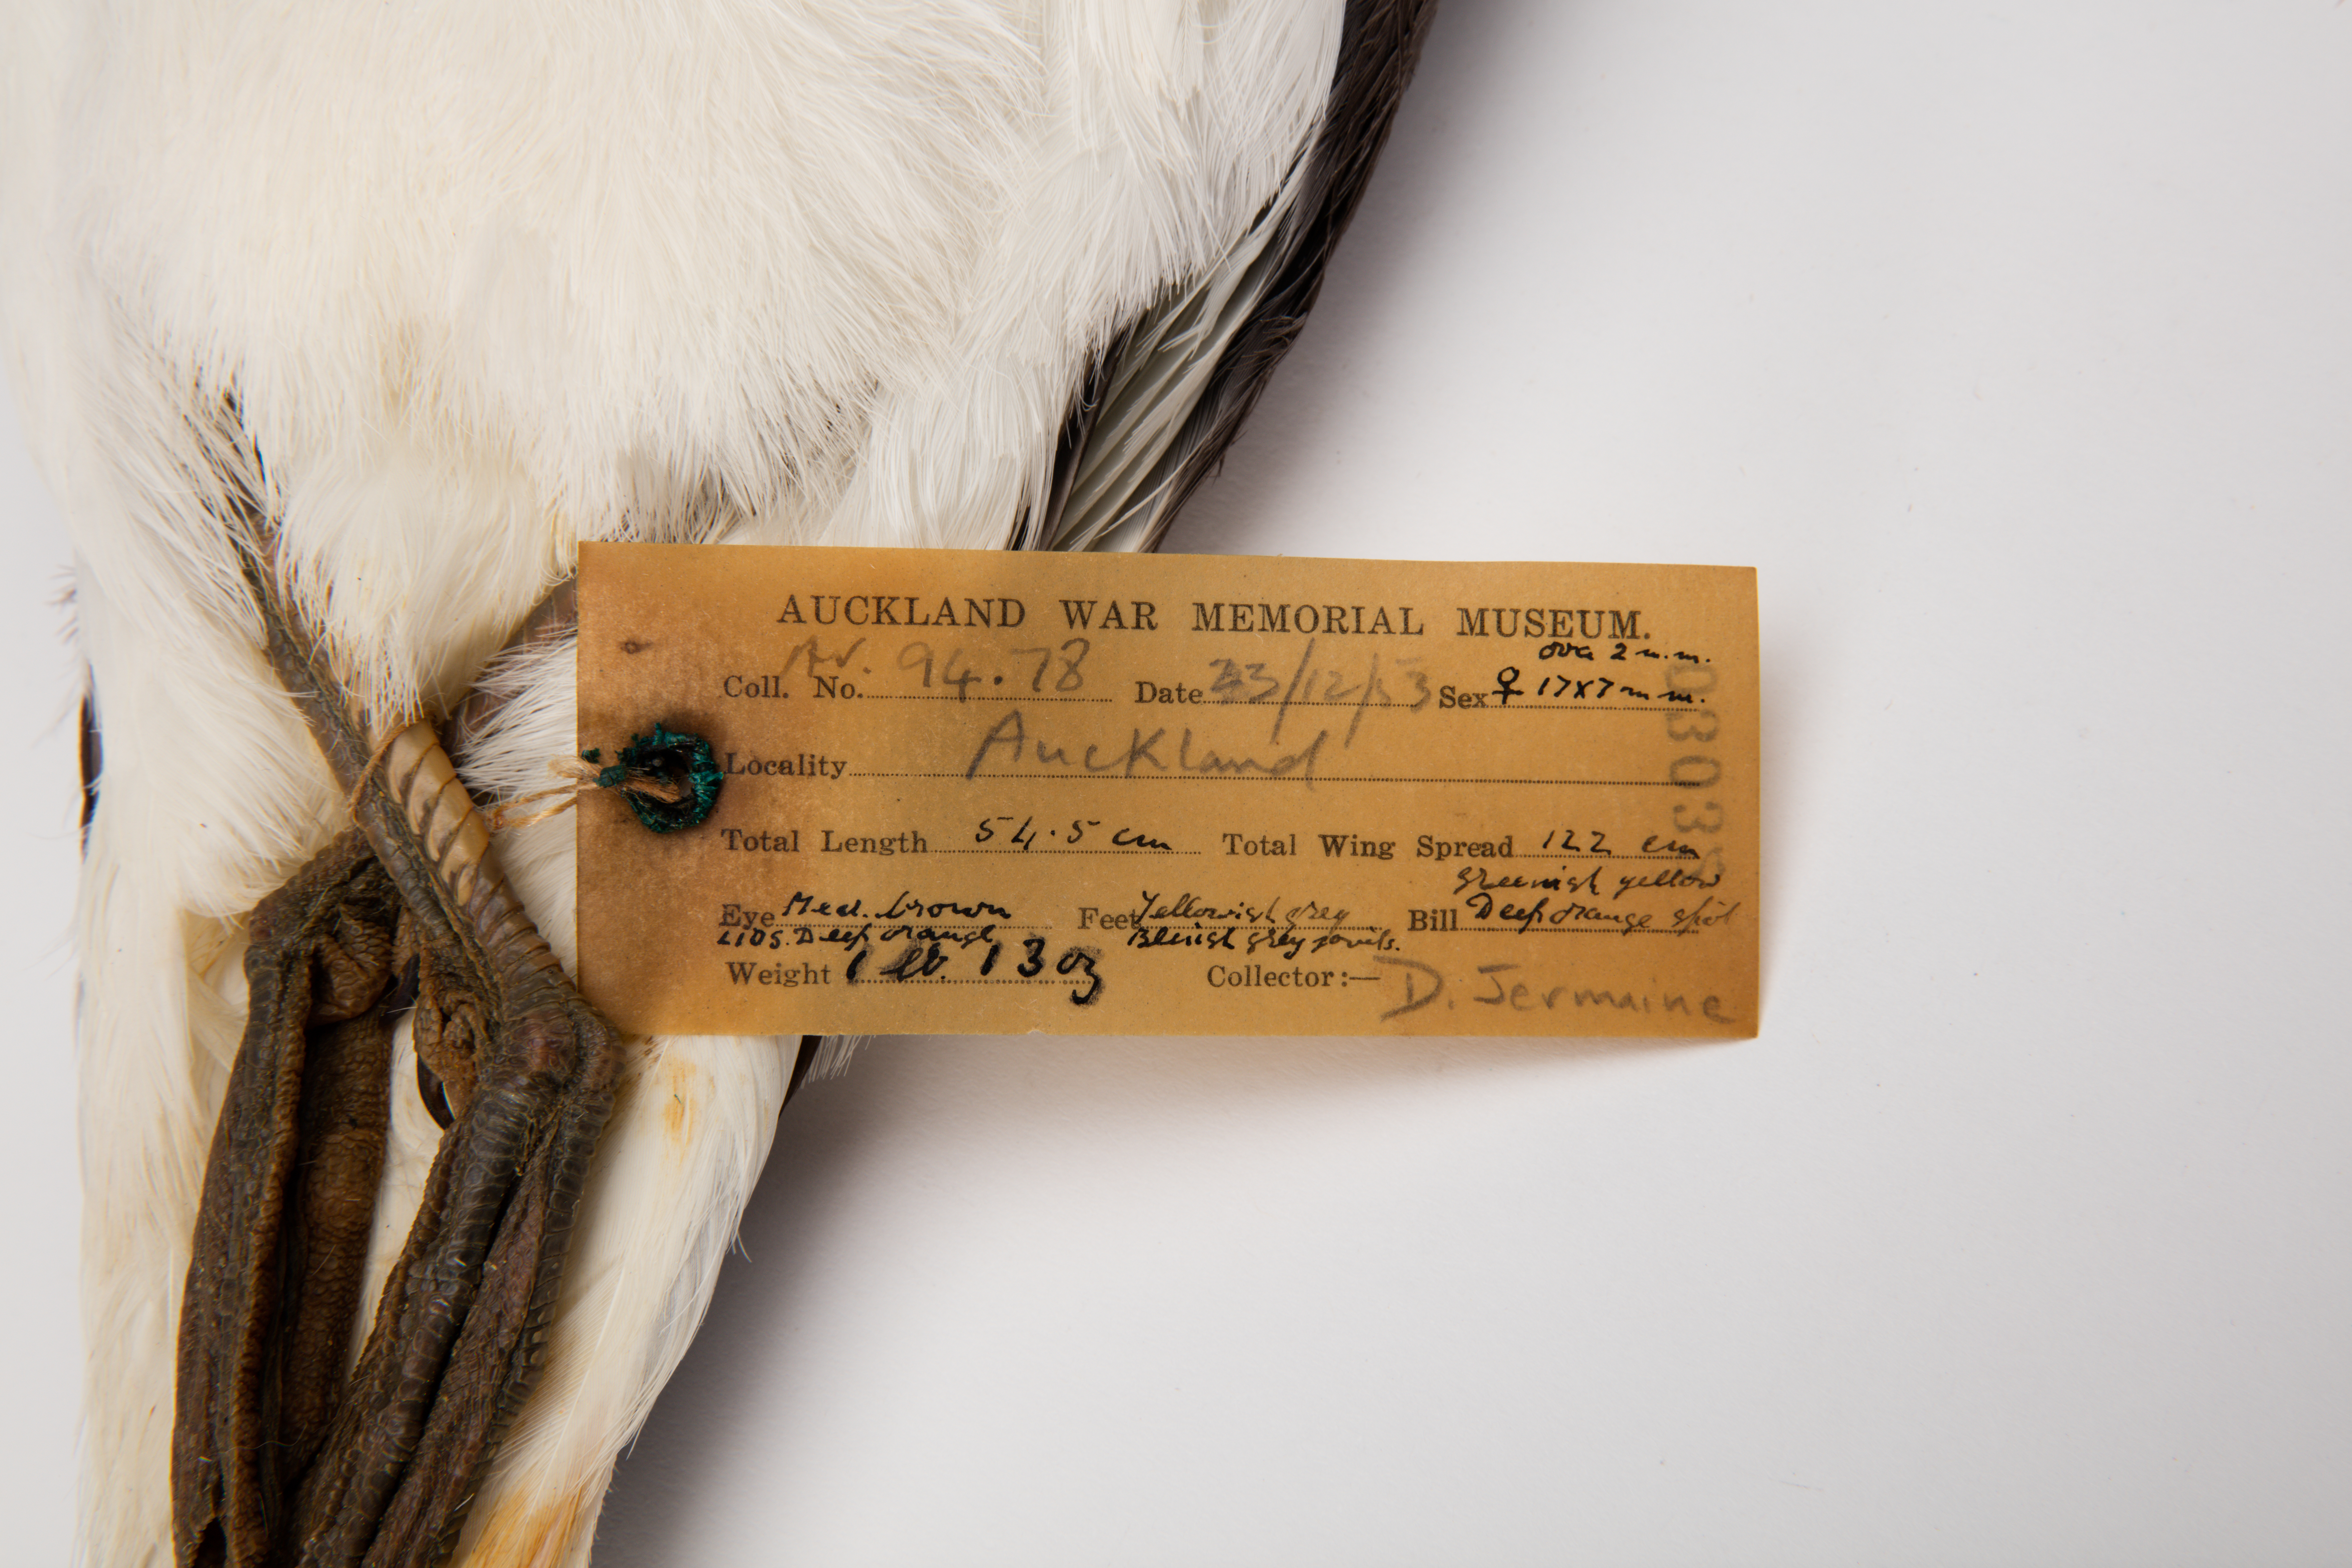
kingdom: Animalia
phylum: Chordata
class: Aves
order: Charadriiformes
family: Laridae
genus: Larus
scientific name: Larus dominicanus
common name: Kelp gull
